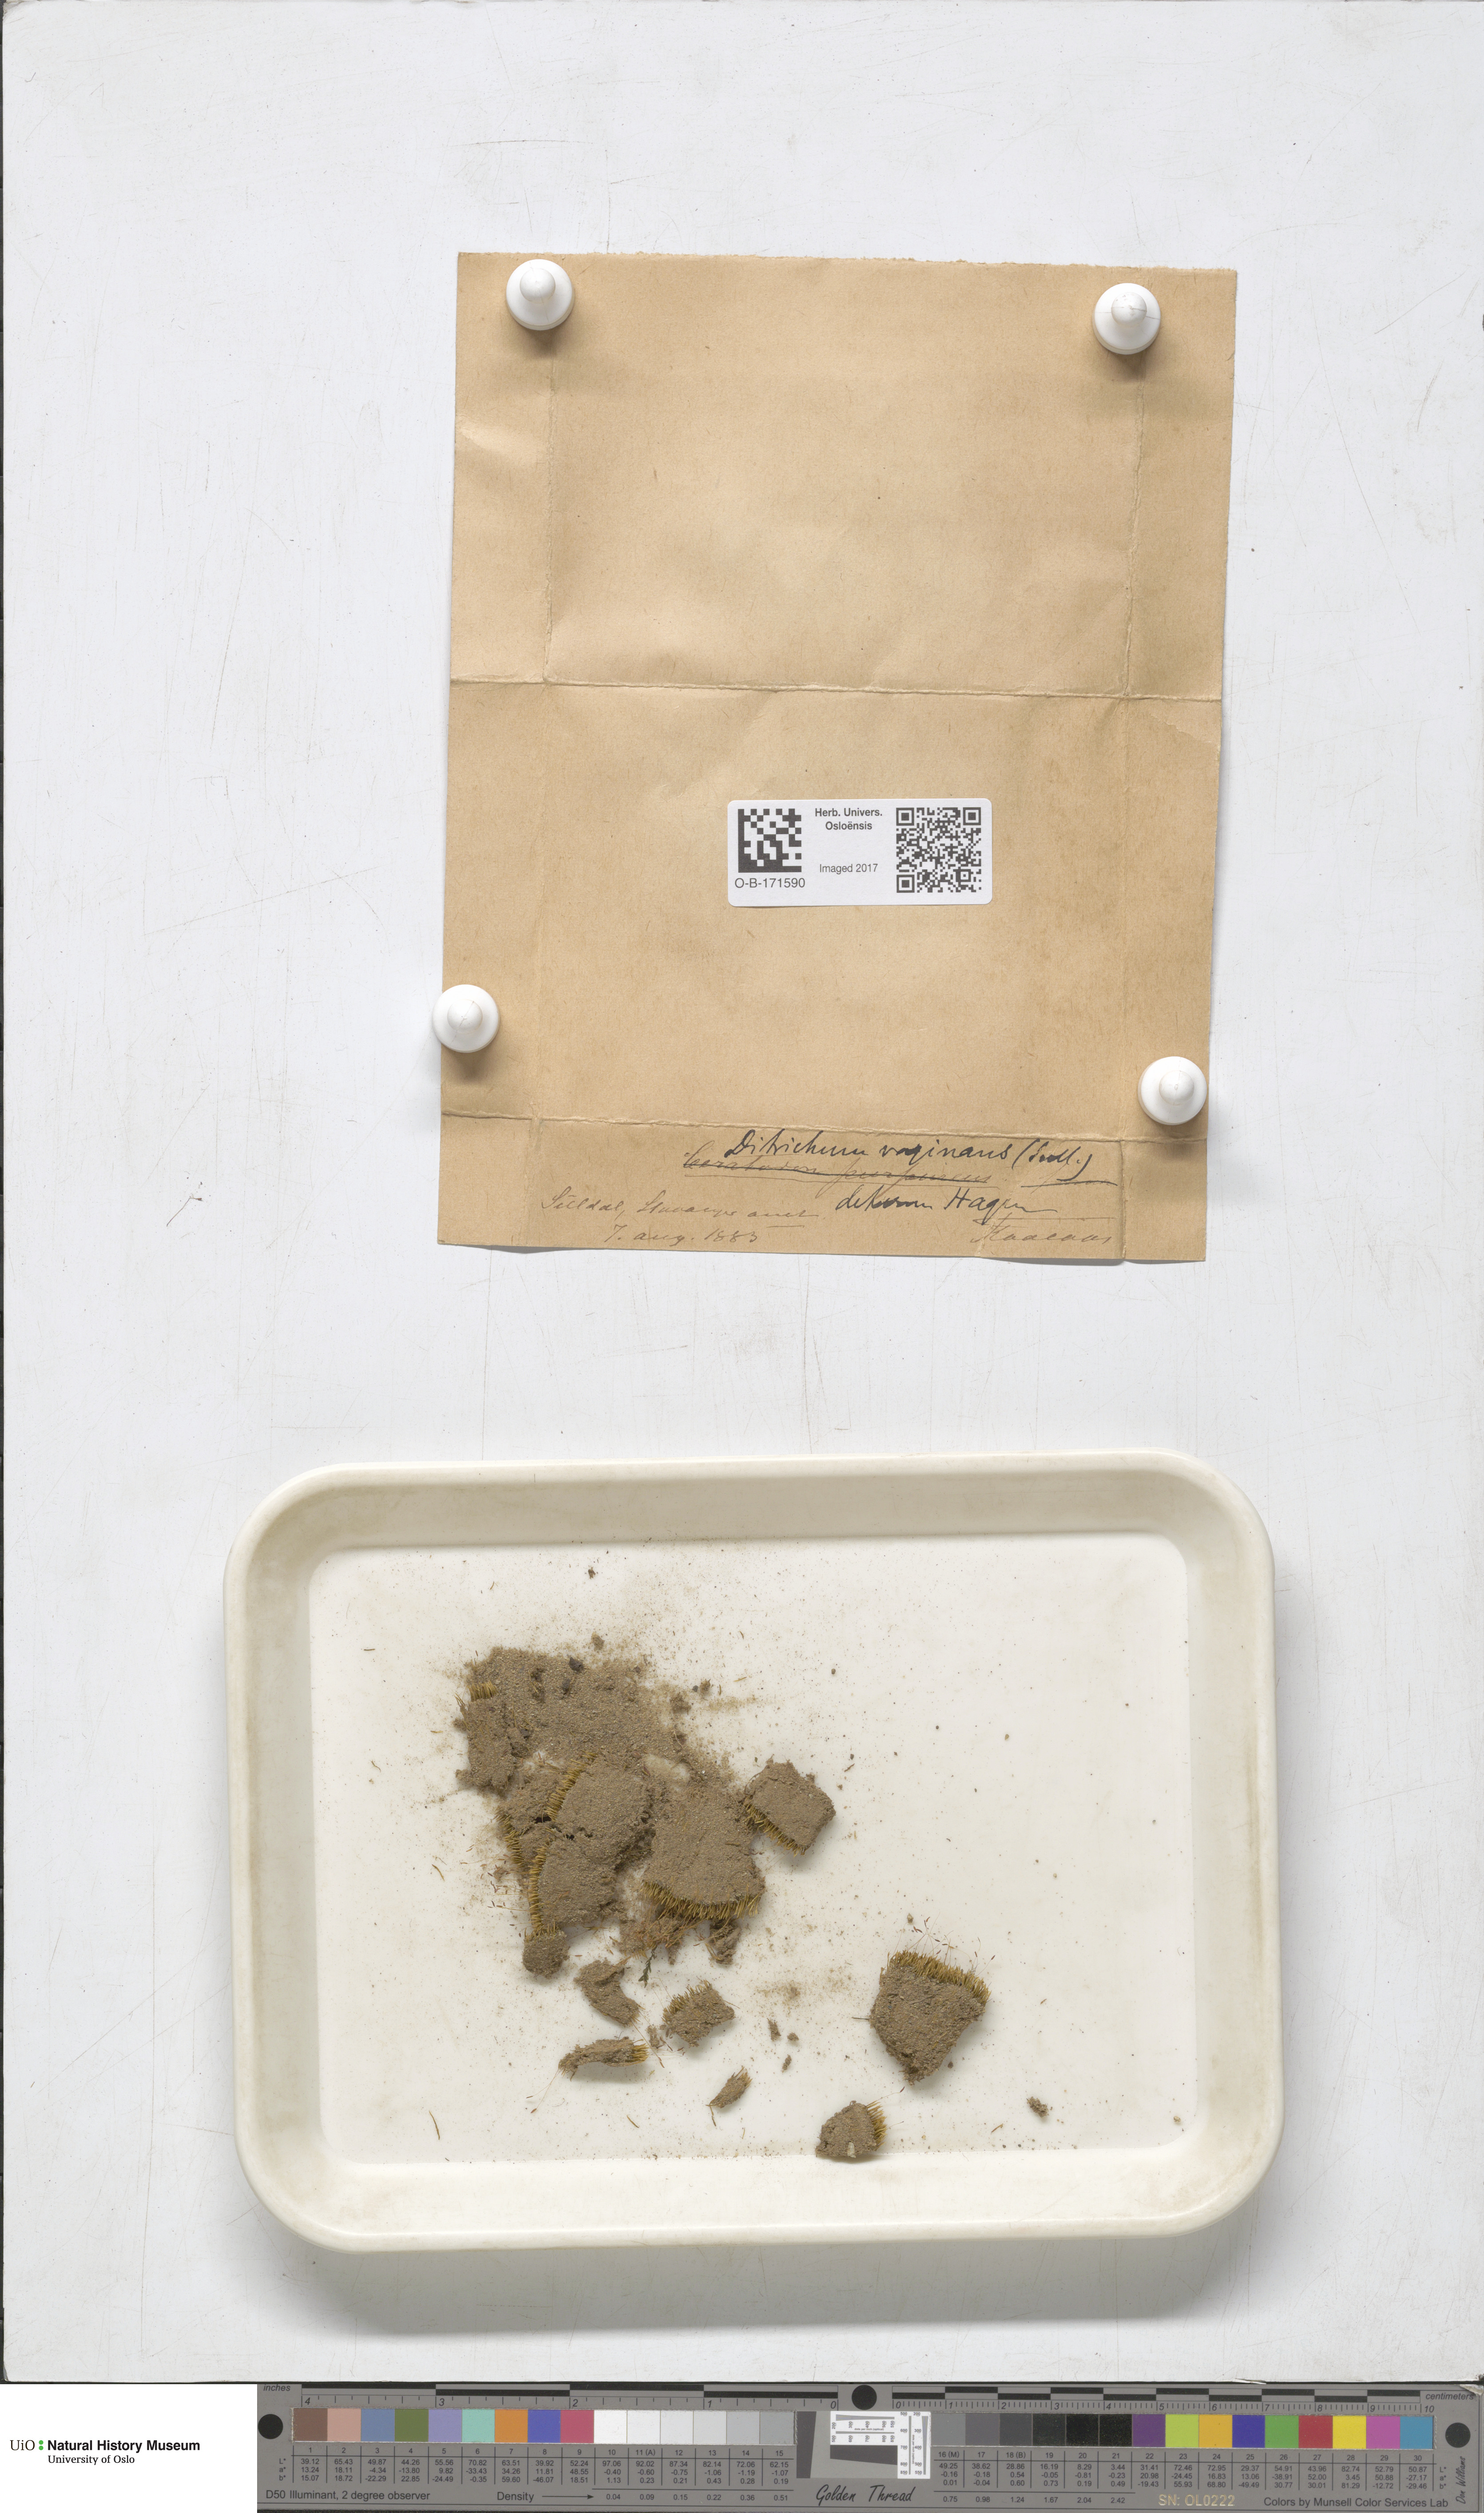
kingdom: Plantae
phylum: Bryophyta
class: Bryopsida
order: Dicranales
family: Ditrichaceae
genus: Ditrichum
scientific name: Ditrichum lineare
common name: Dark cow-hair moss
